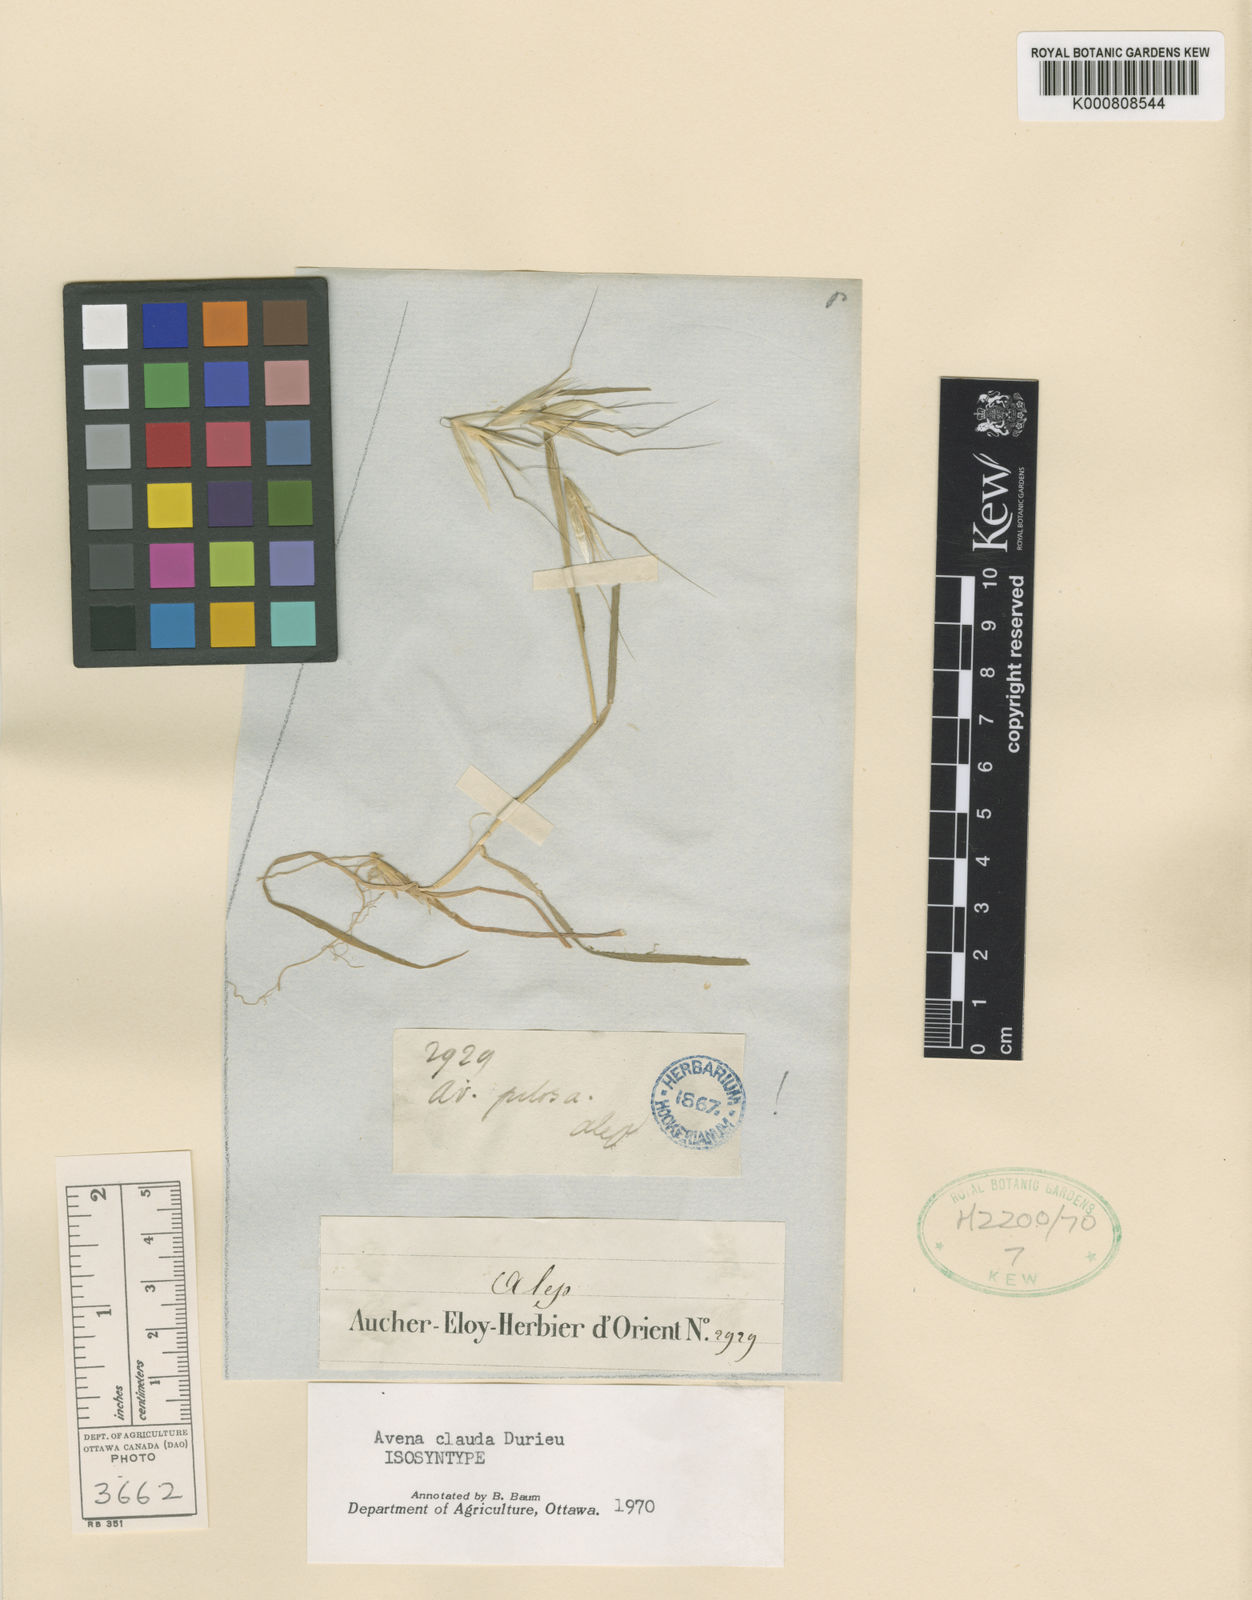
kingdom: Plantae
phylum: Tracheophyta
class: Liliopsida
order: Poales
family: Poaceae
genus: Avena
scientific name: Avena clauda
